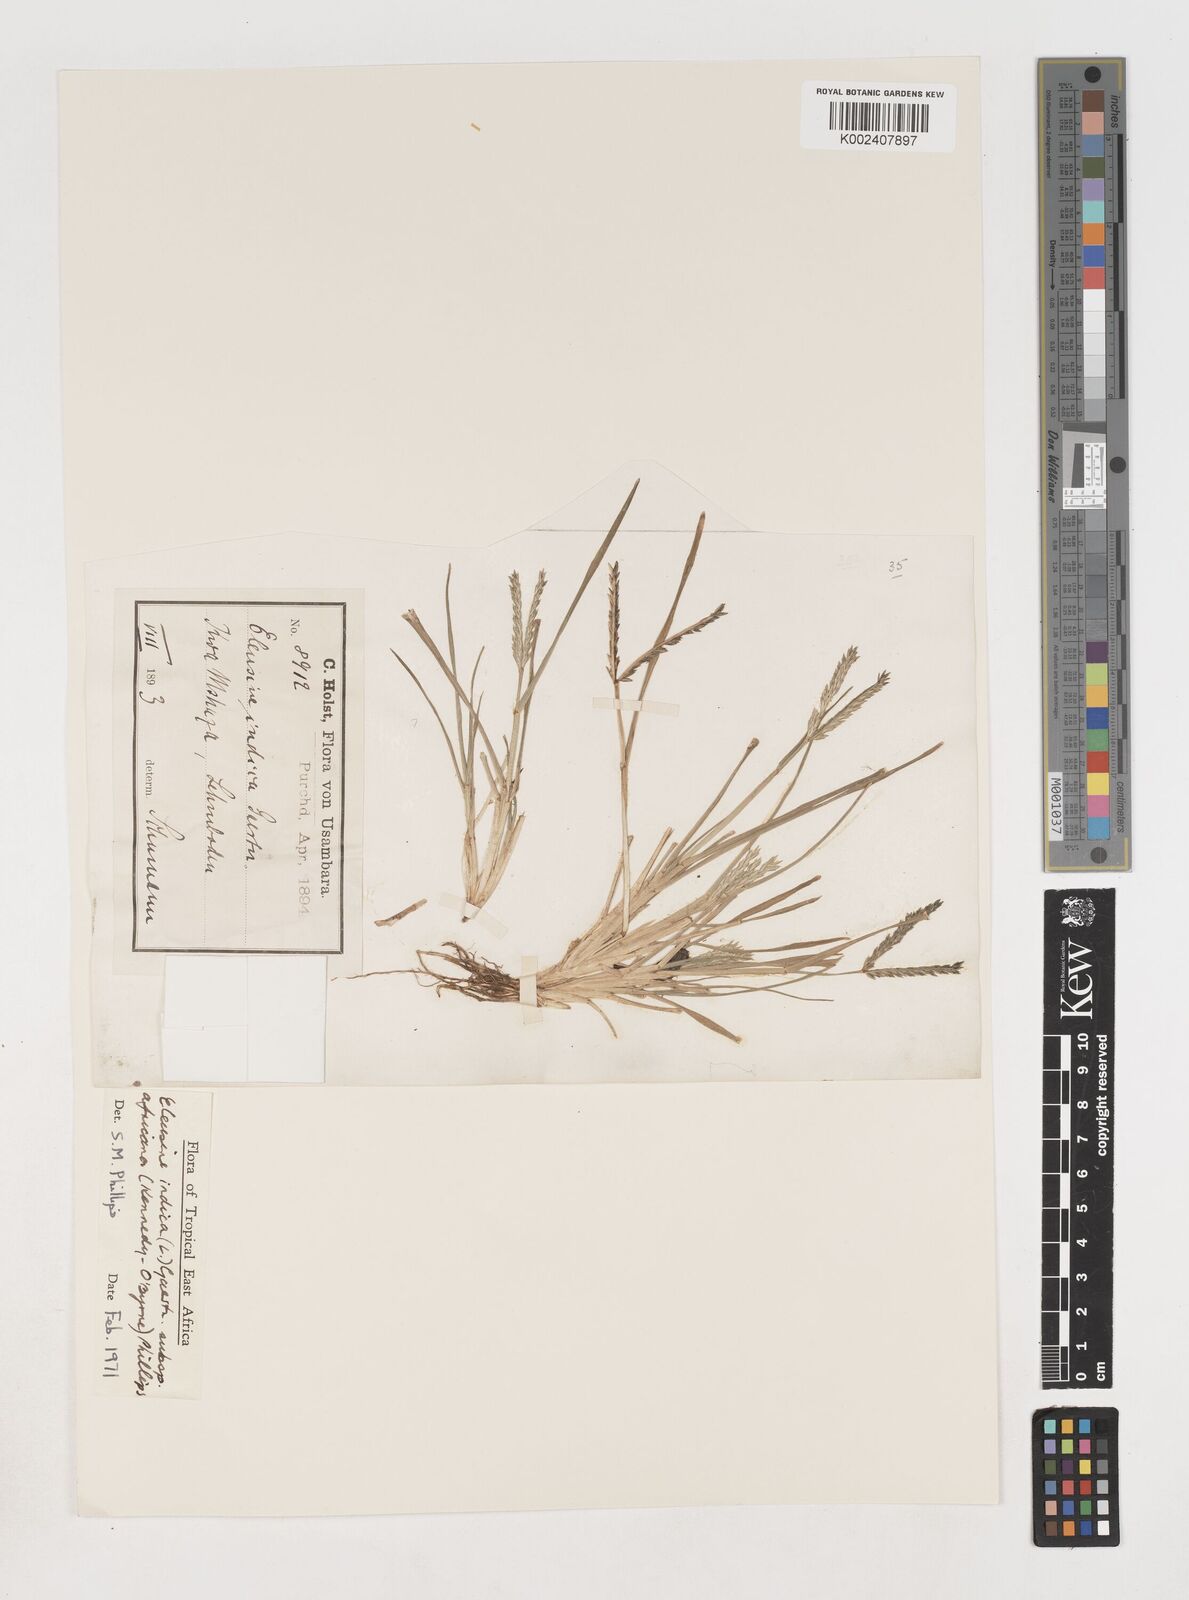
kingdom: Plantae
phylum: Tracheophyta
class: Liliopsida
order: Poales
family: Poaceae
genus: Eleusine
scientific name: Eleusine africana
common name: Wild african finger millet
